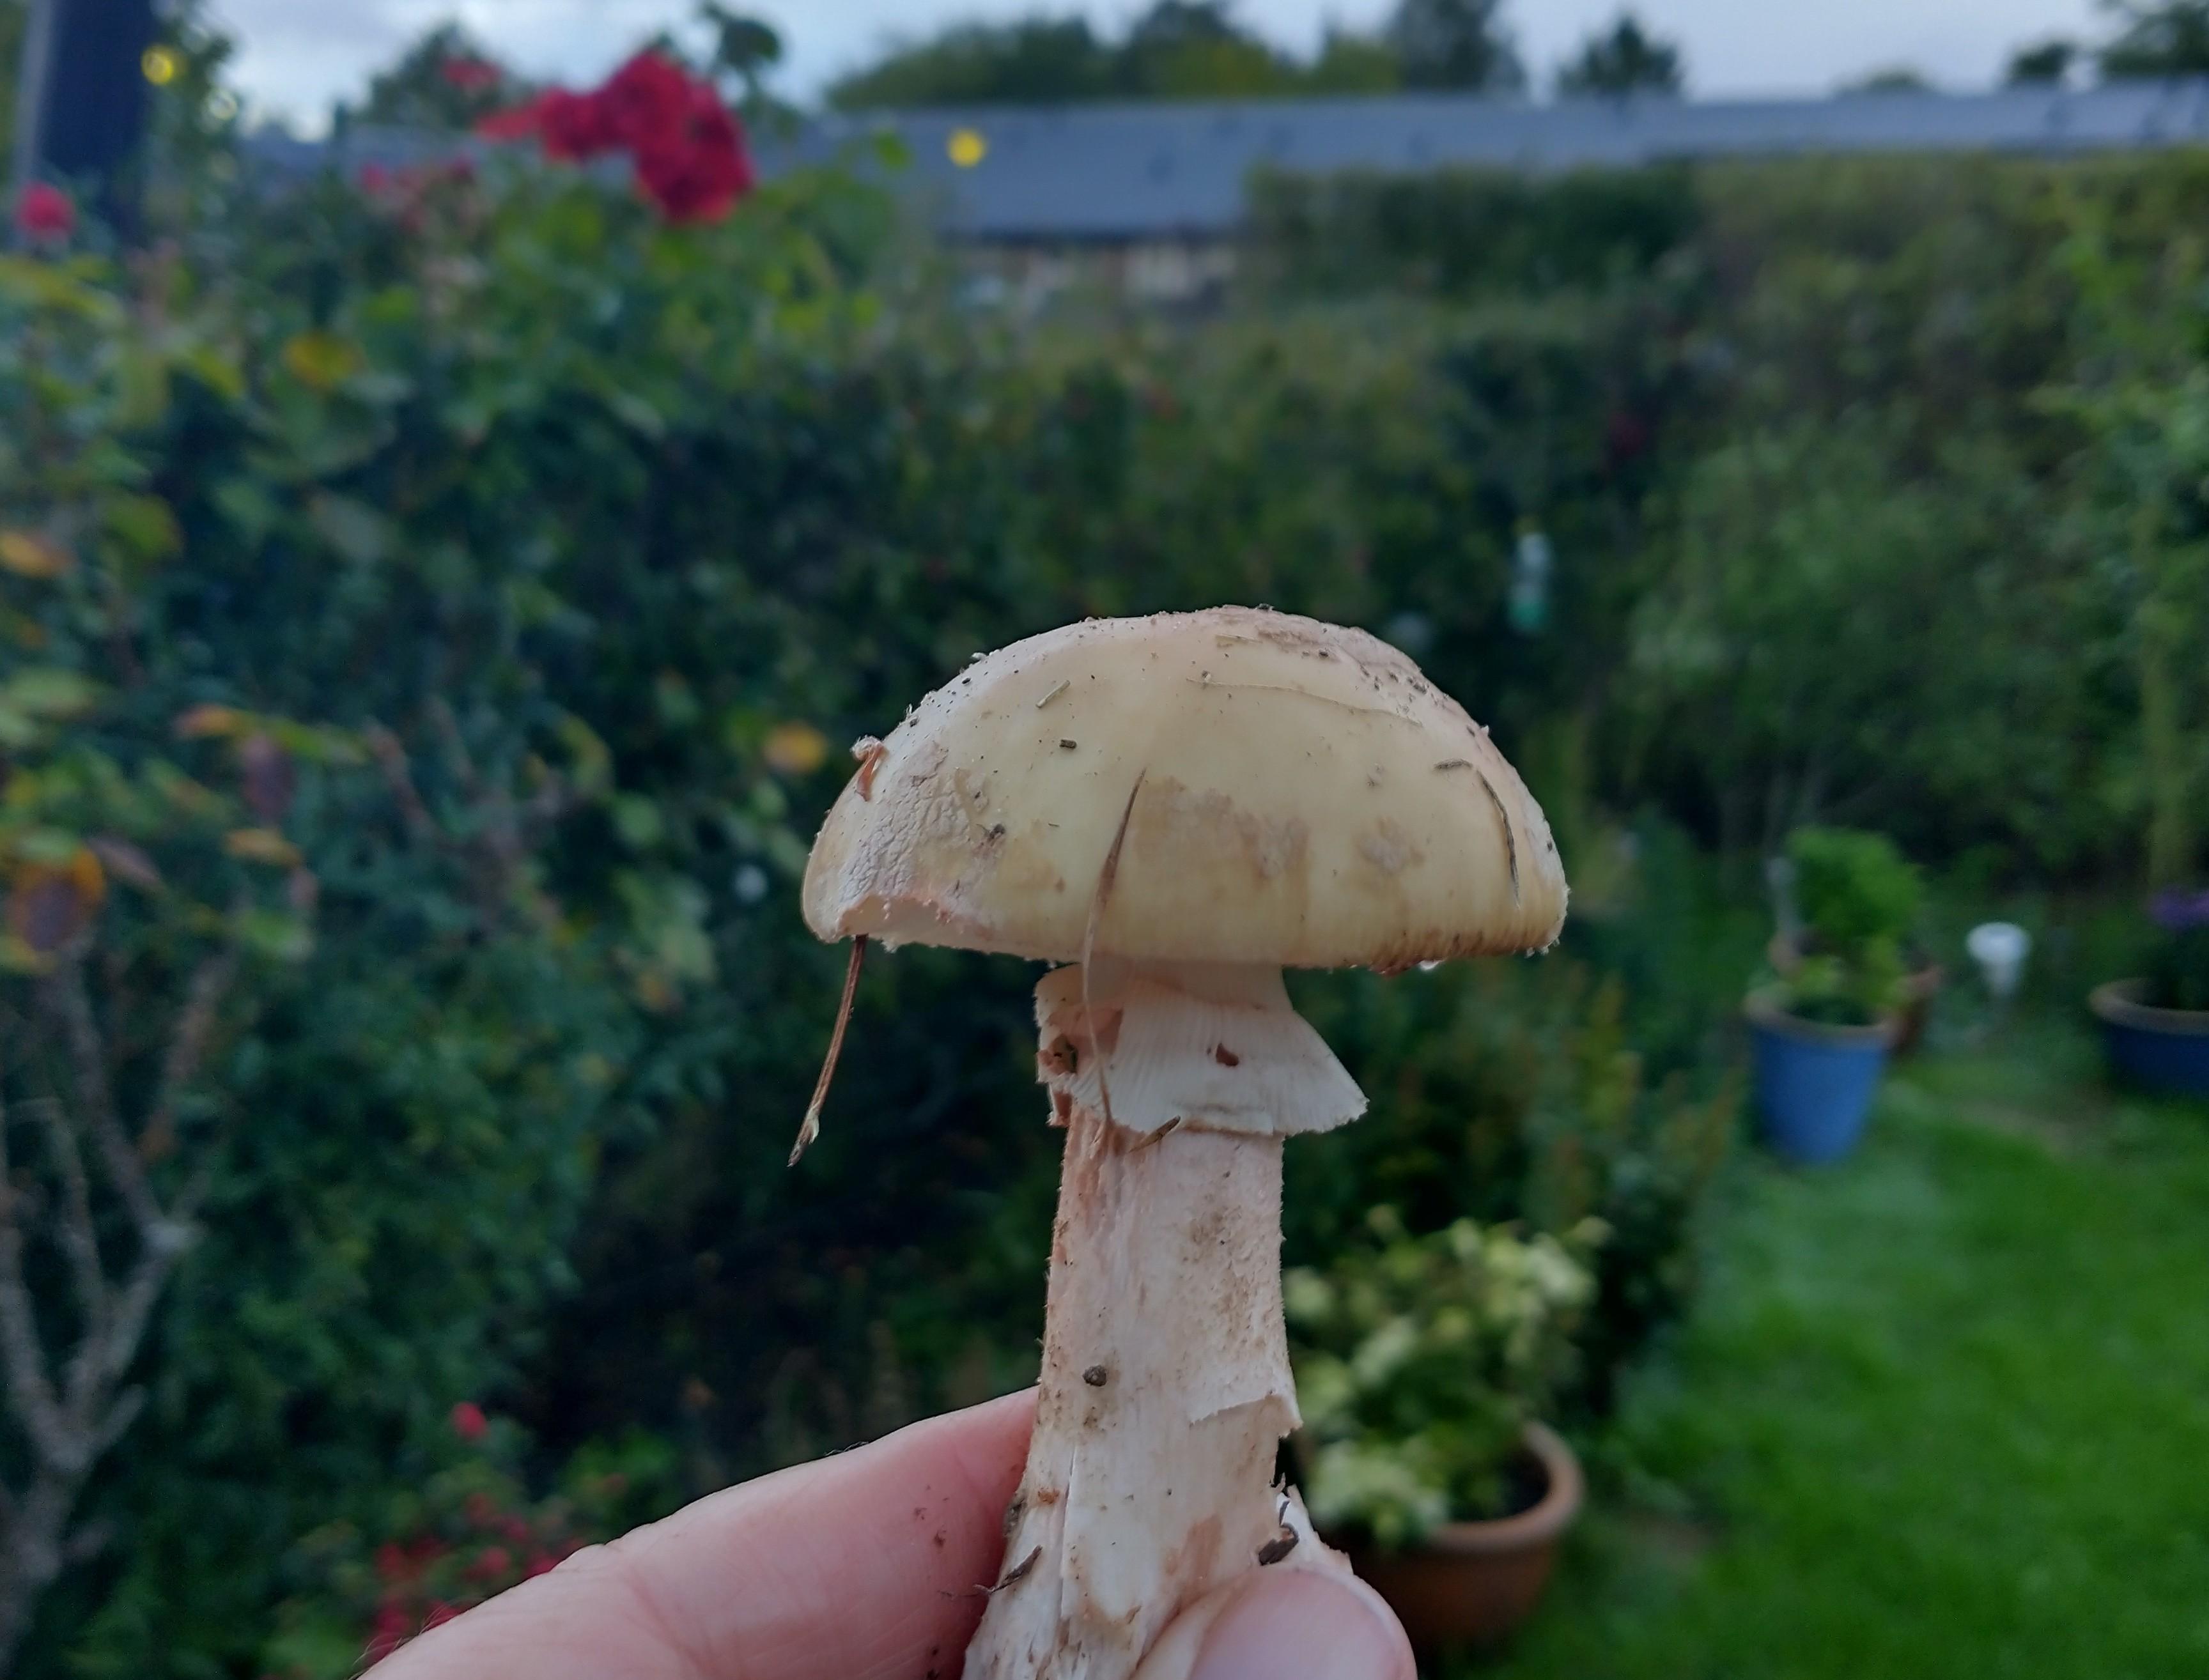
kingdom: Fungi
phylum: Basidiomycota
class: Agaricomycetes
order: Agaricales
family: Amanitaceae
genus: Amanita
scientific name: Amanita rubescens
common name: rødmende fluesvamp
